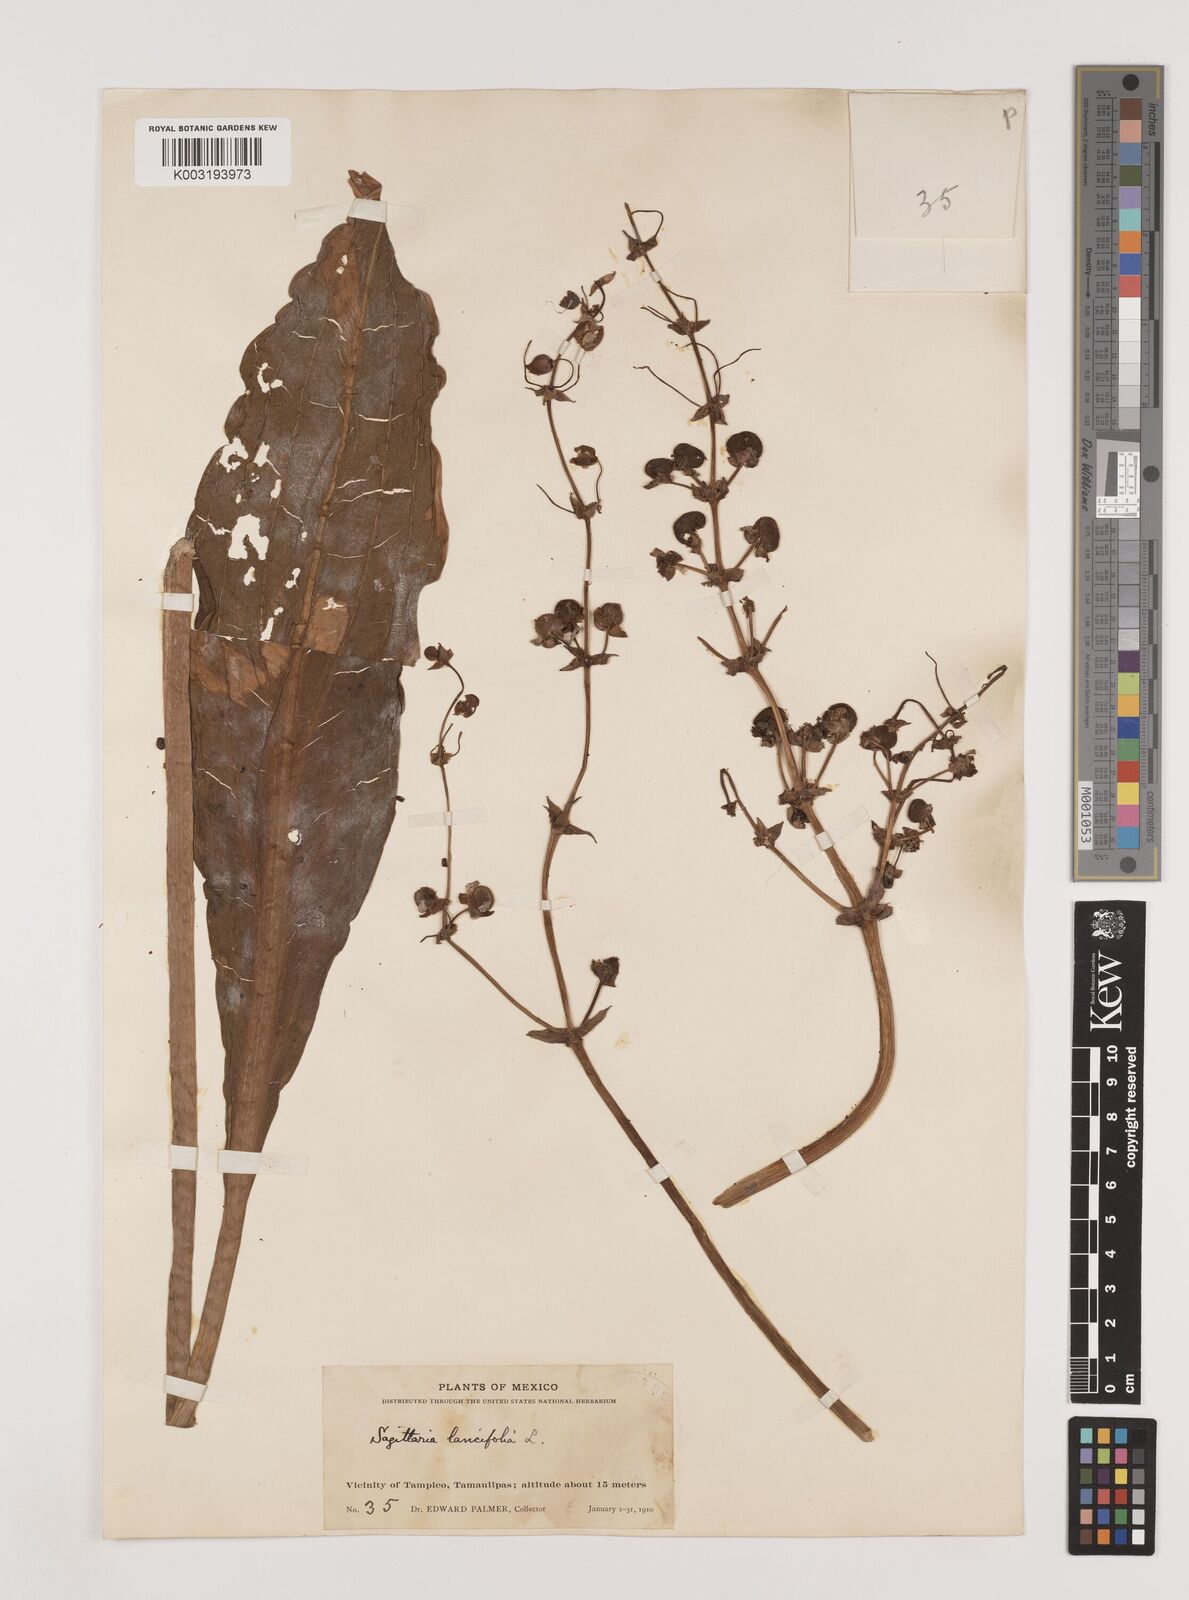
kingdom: Plantae
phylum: Tracheophyta
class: Liliopsida
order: Alismatales
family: Alismataceae
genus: Sagittaria
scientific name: Sagittaria lancifolia
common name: Lance-leaf arrowhead
